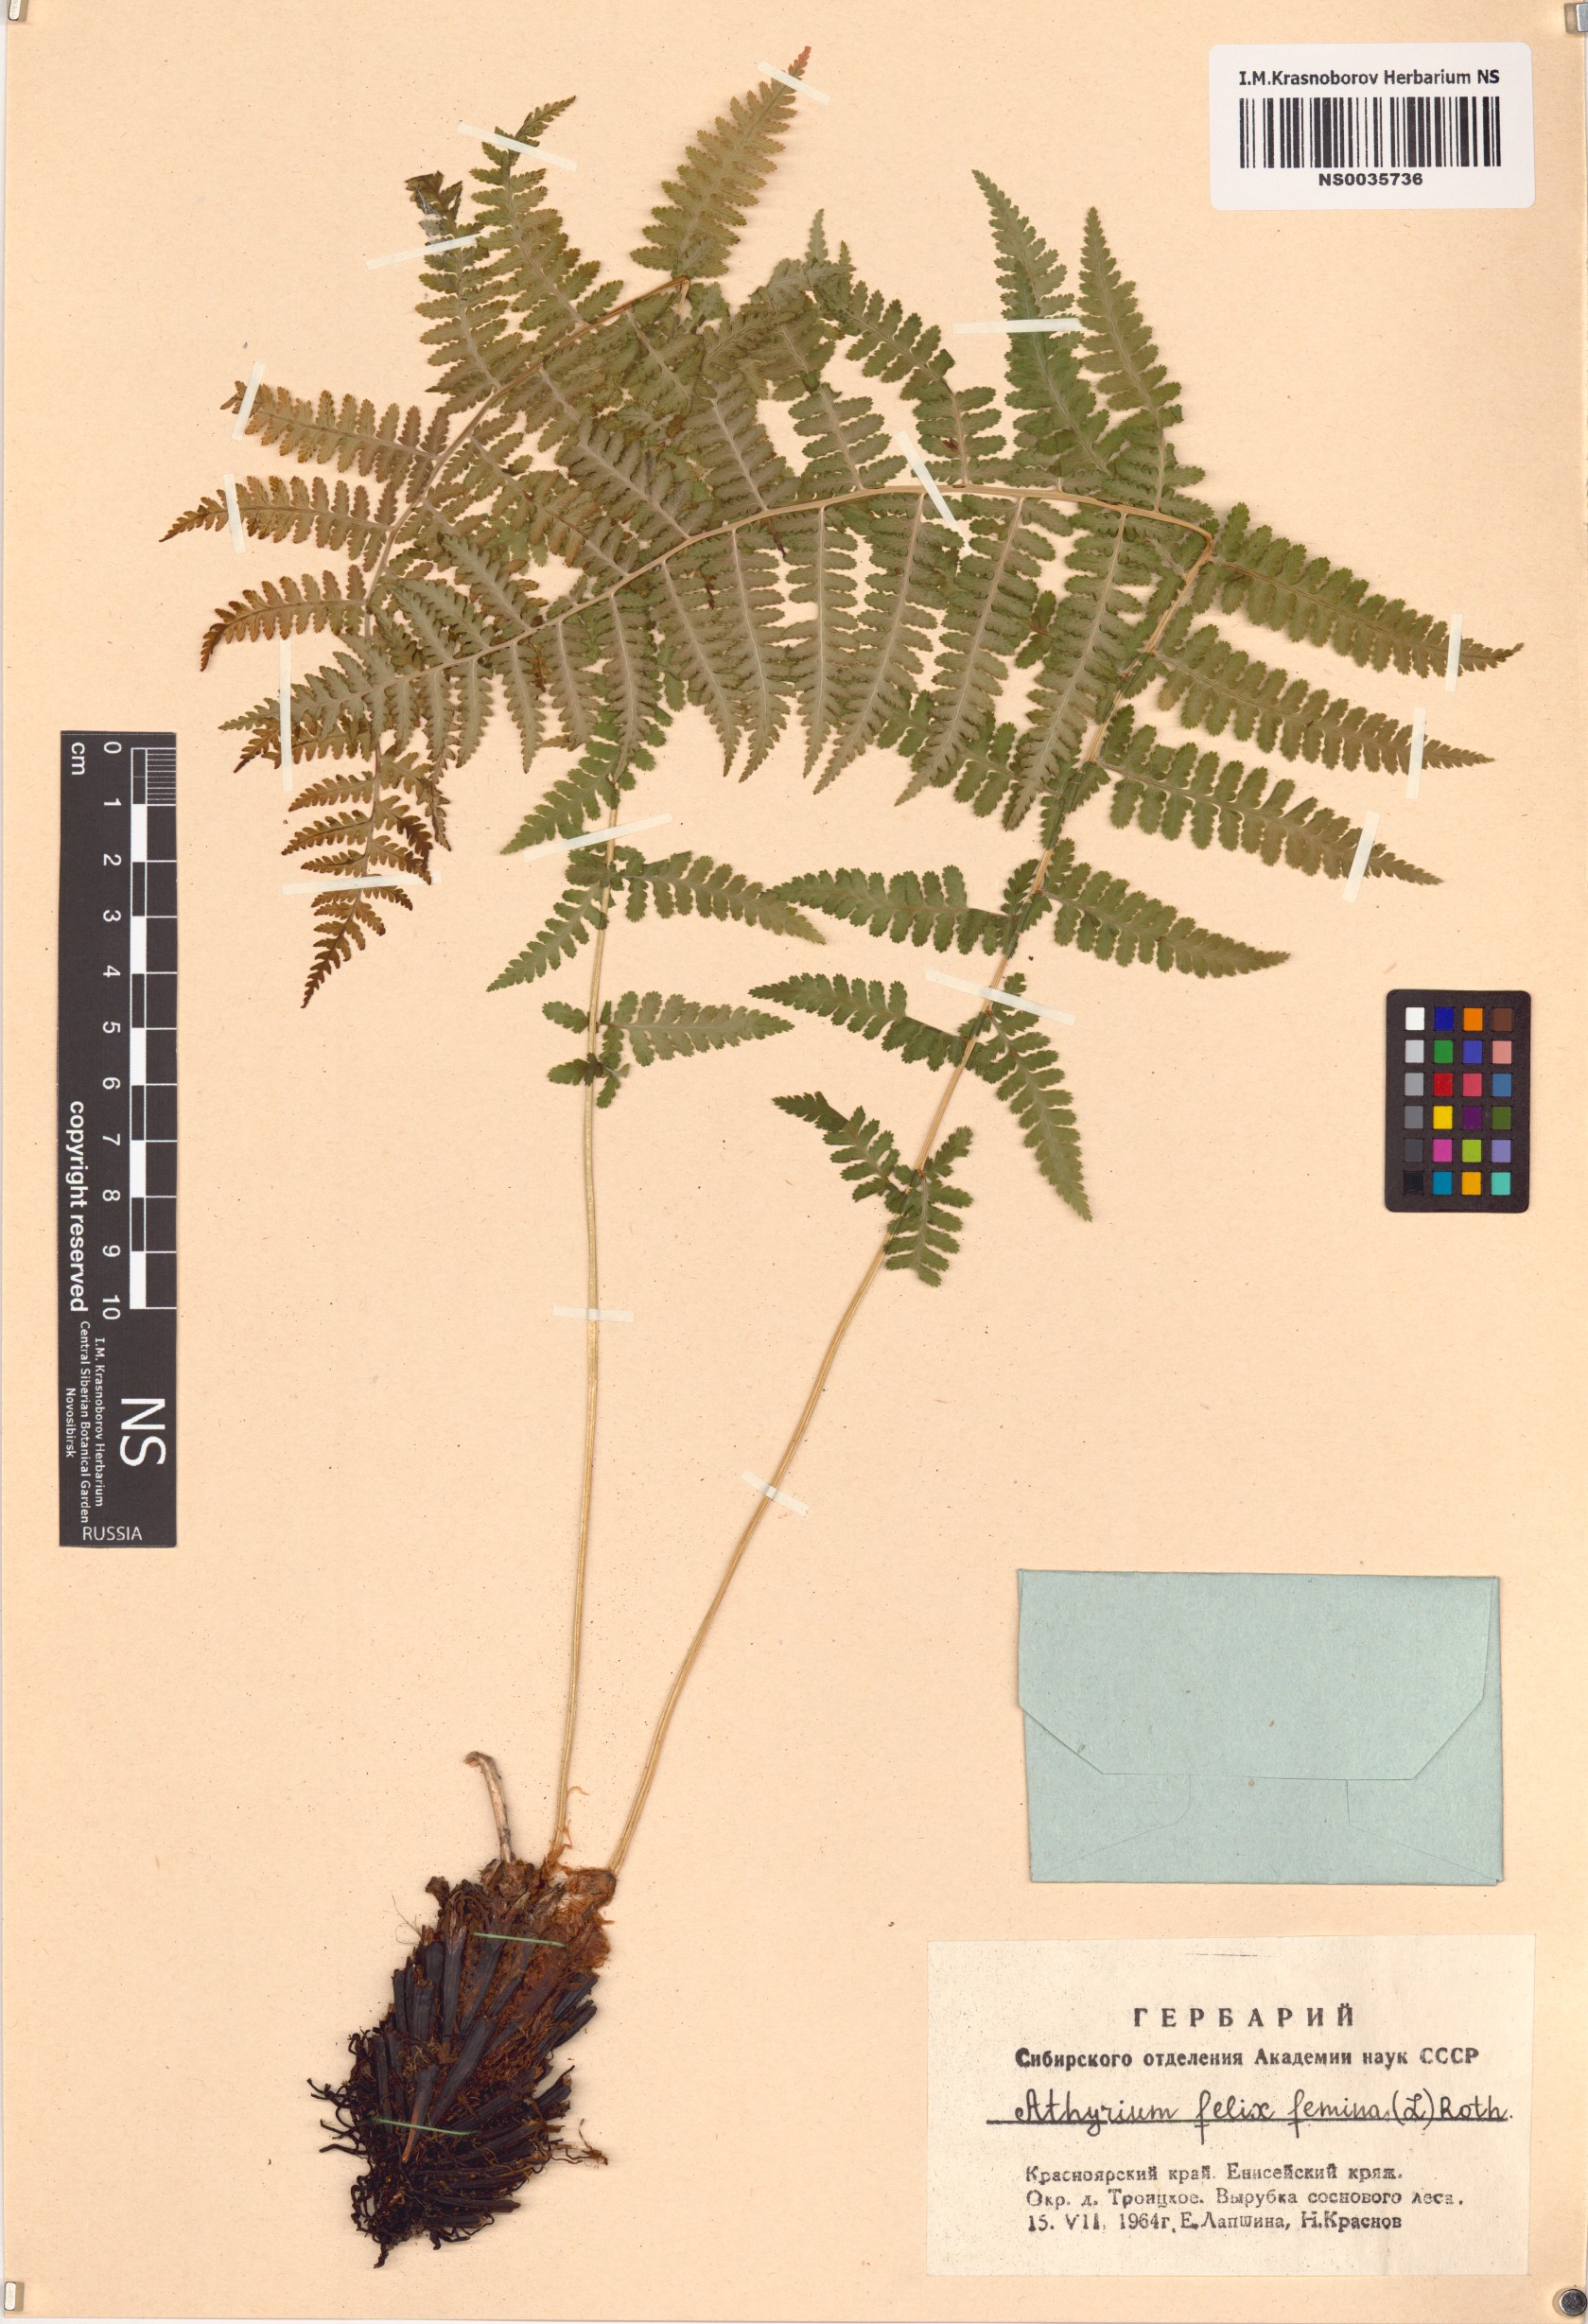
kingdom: Plantae
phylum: Tracheophyta
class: Polypodiopsida
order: Polypodiales
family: Athyriaceae
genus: Athyrium
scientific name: Athyrium filix-femina
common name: Lady fern
